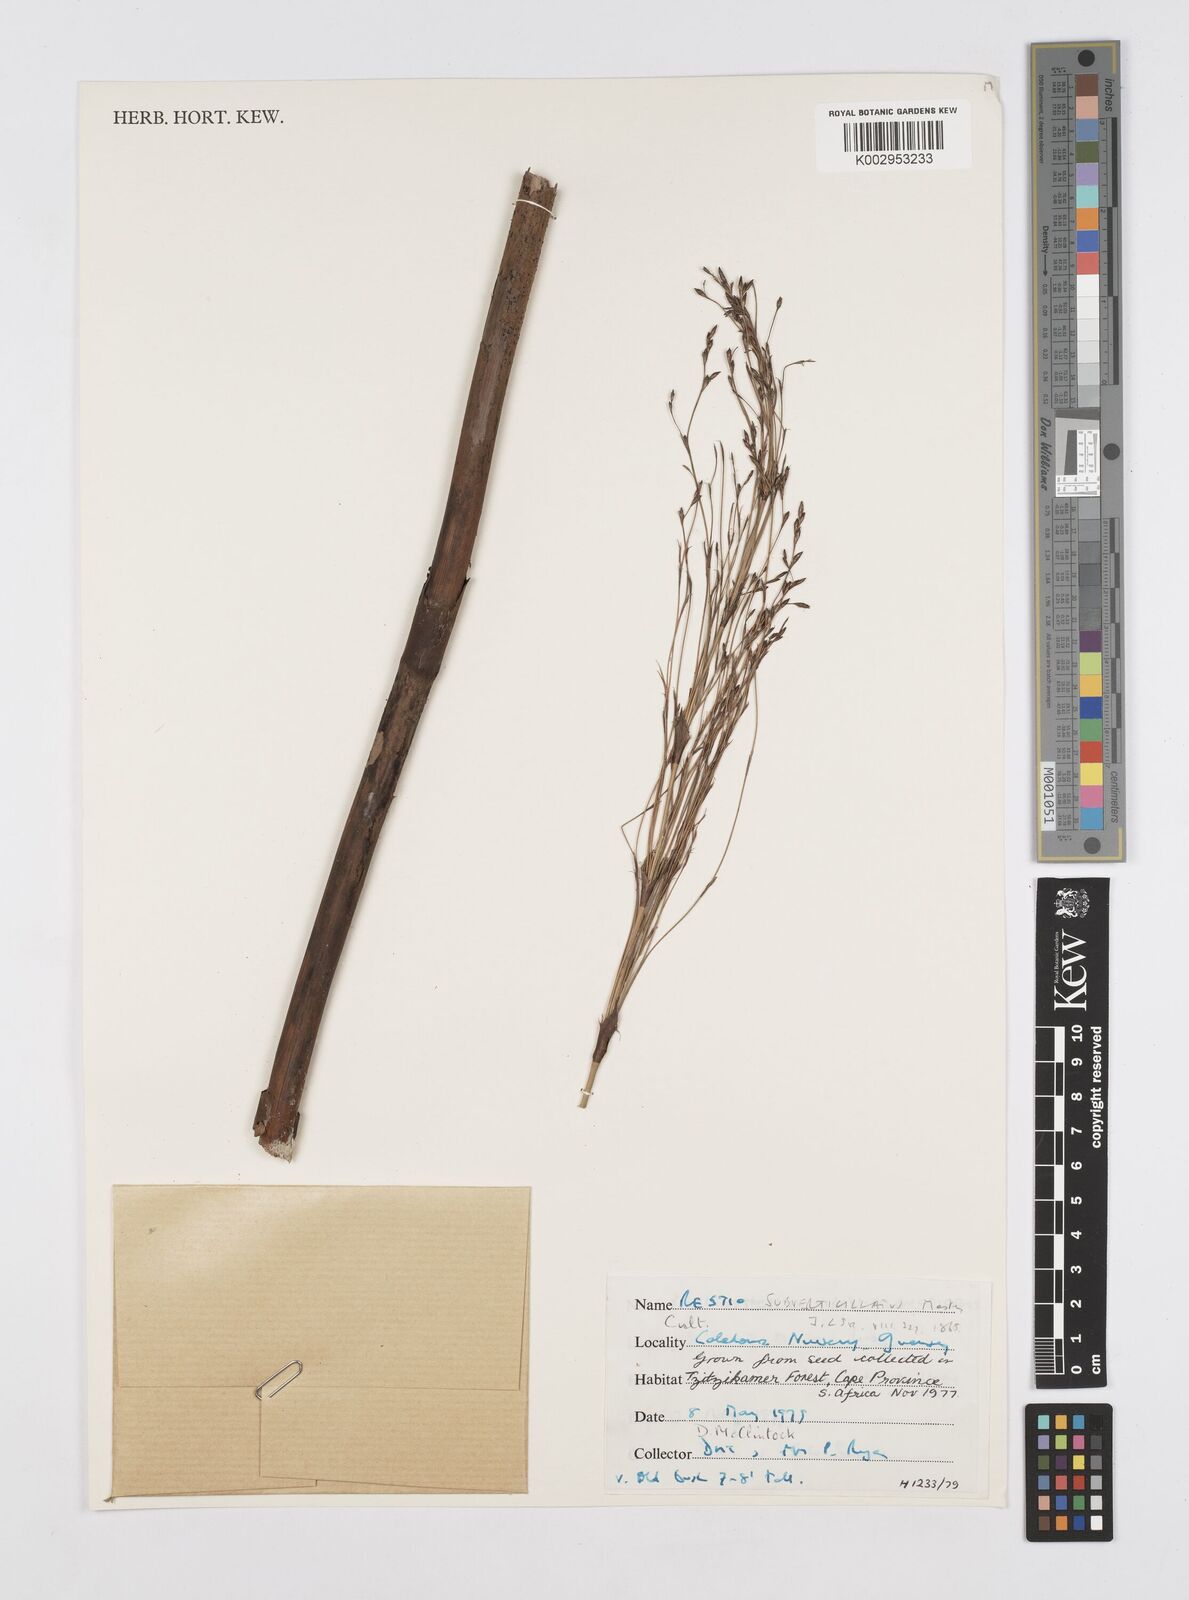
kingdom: Plantae
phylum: Tracheophyta
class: Liliopsida
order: Poales
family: Restionaceae
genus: Restio
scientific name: Restio subverticillatus
